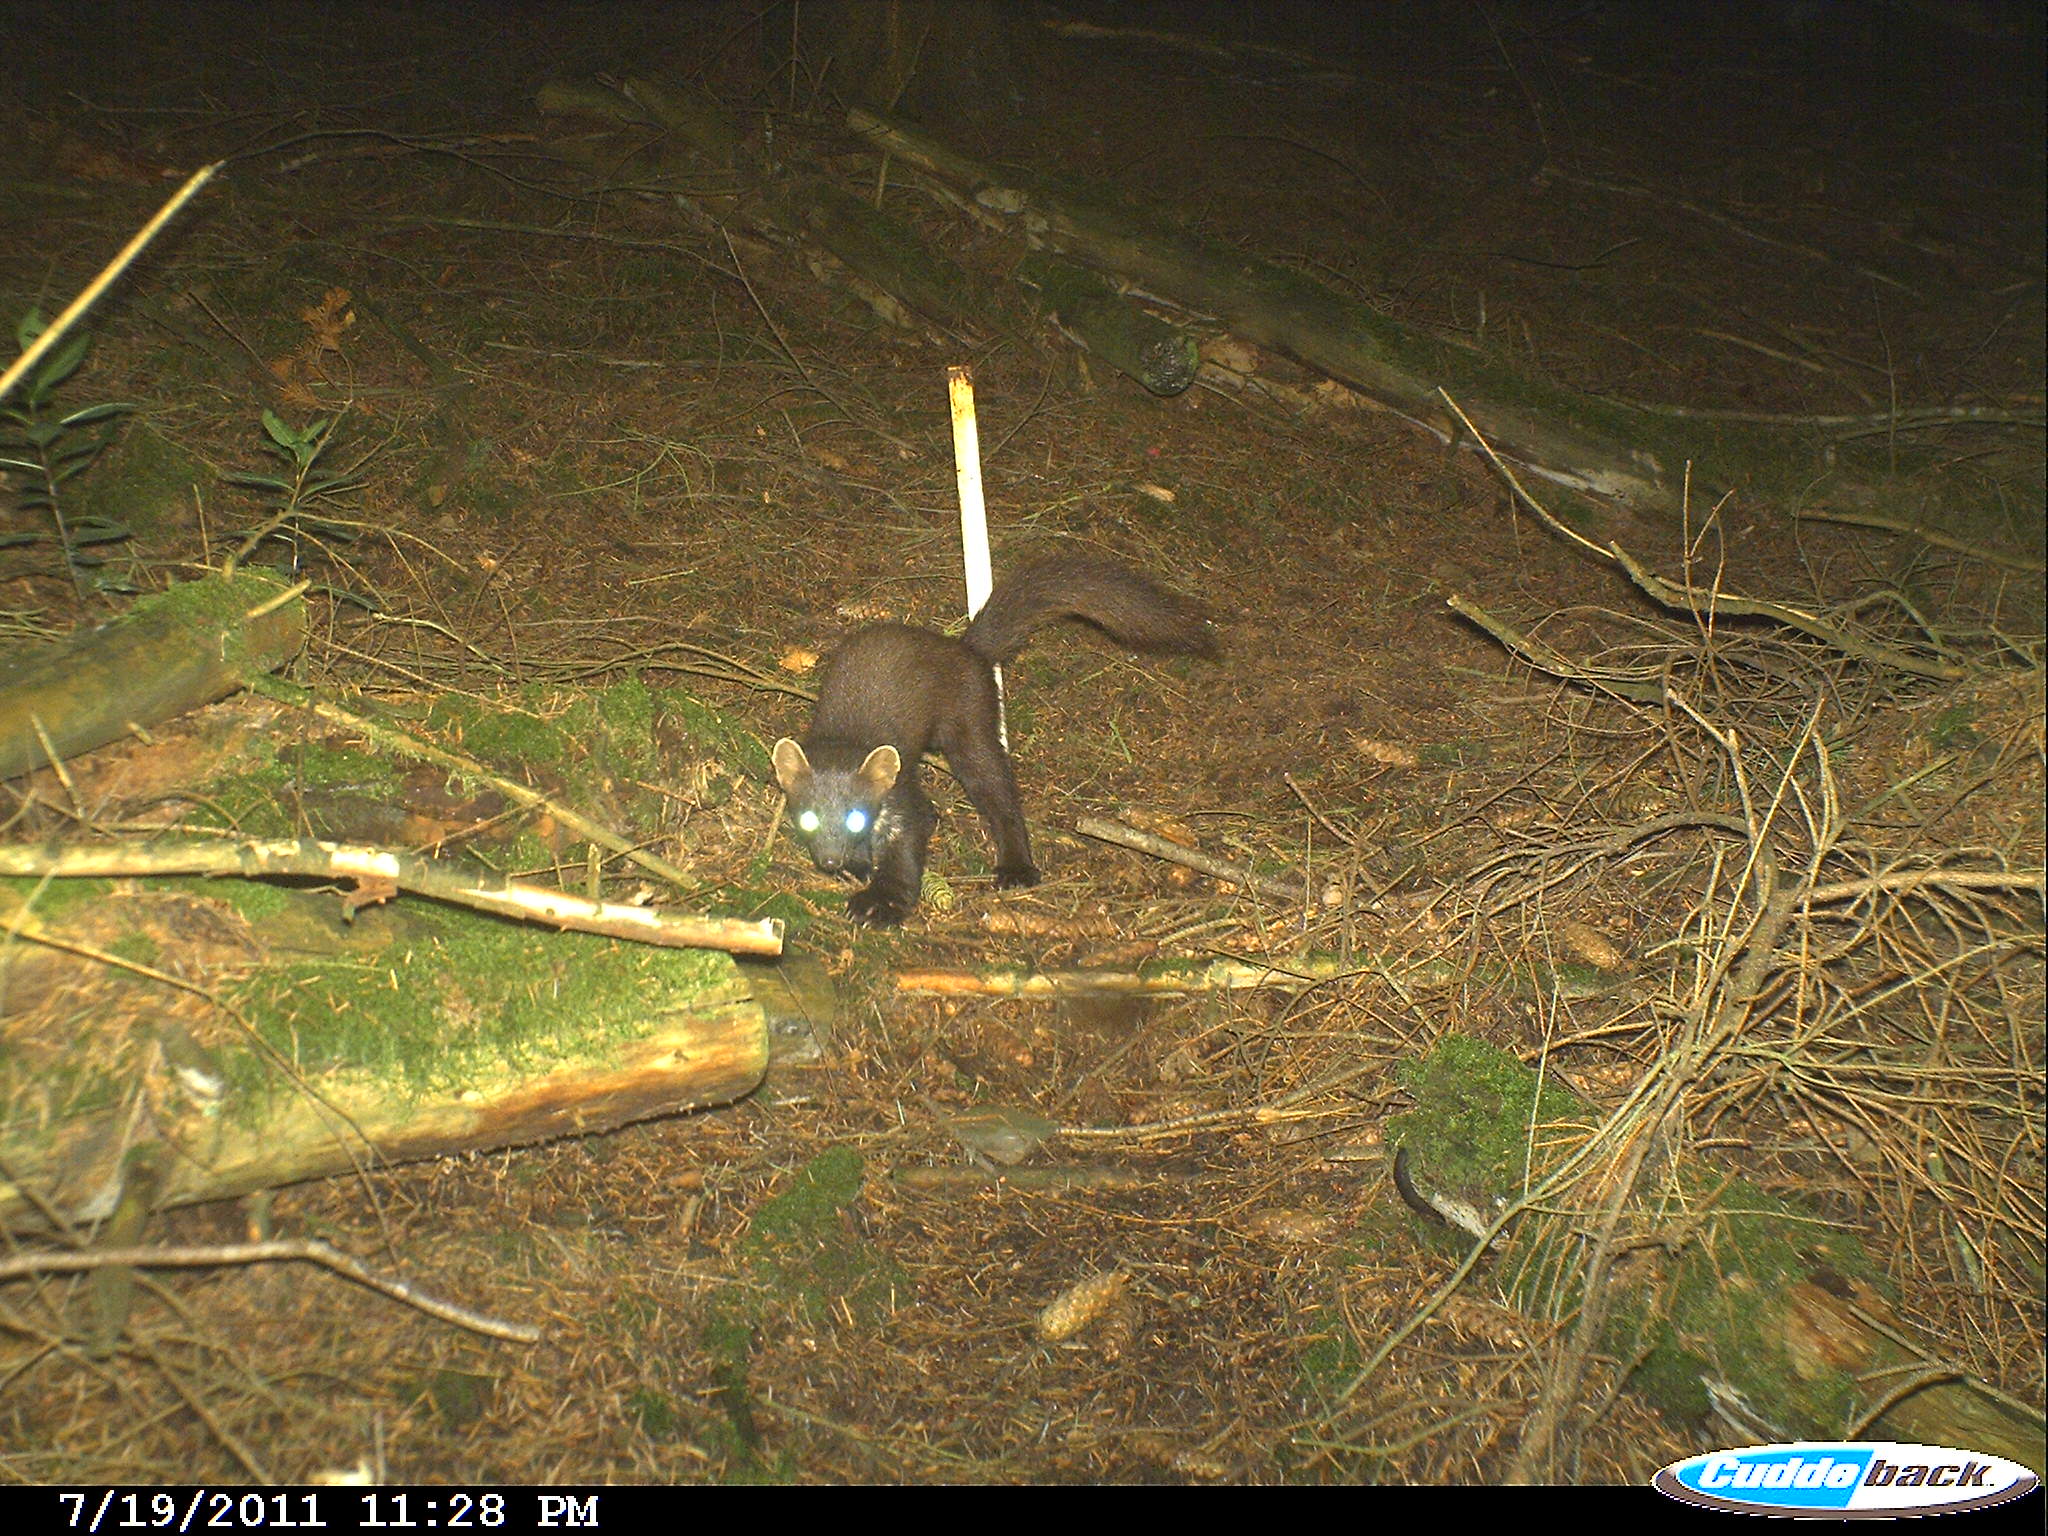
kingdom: Animalia
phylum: Chordata
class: Mammalia
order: Carnivora
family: Mustelidae
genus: Martes
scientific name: Martes martes
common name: European pine marten
